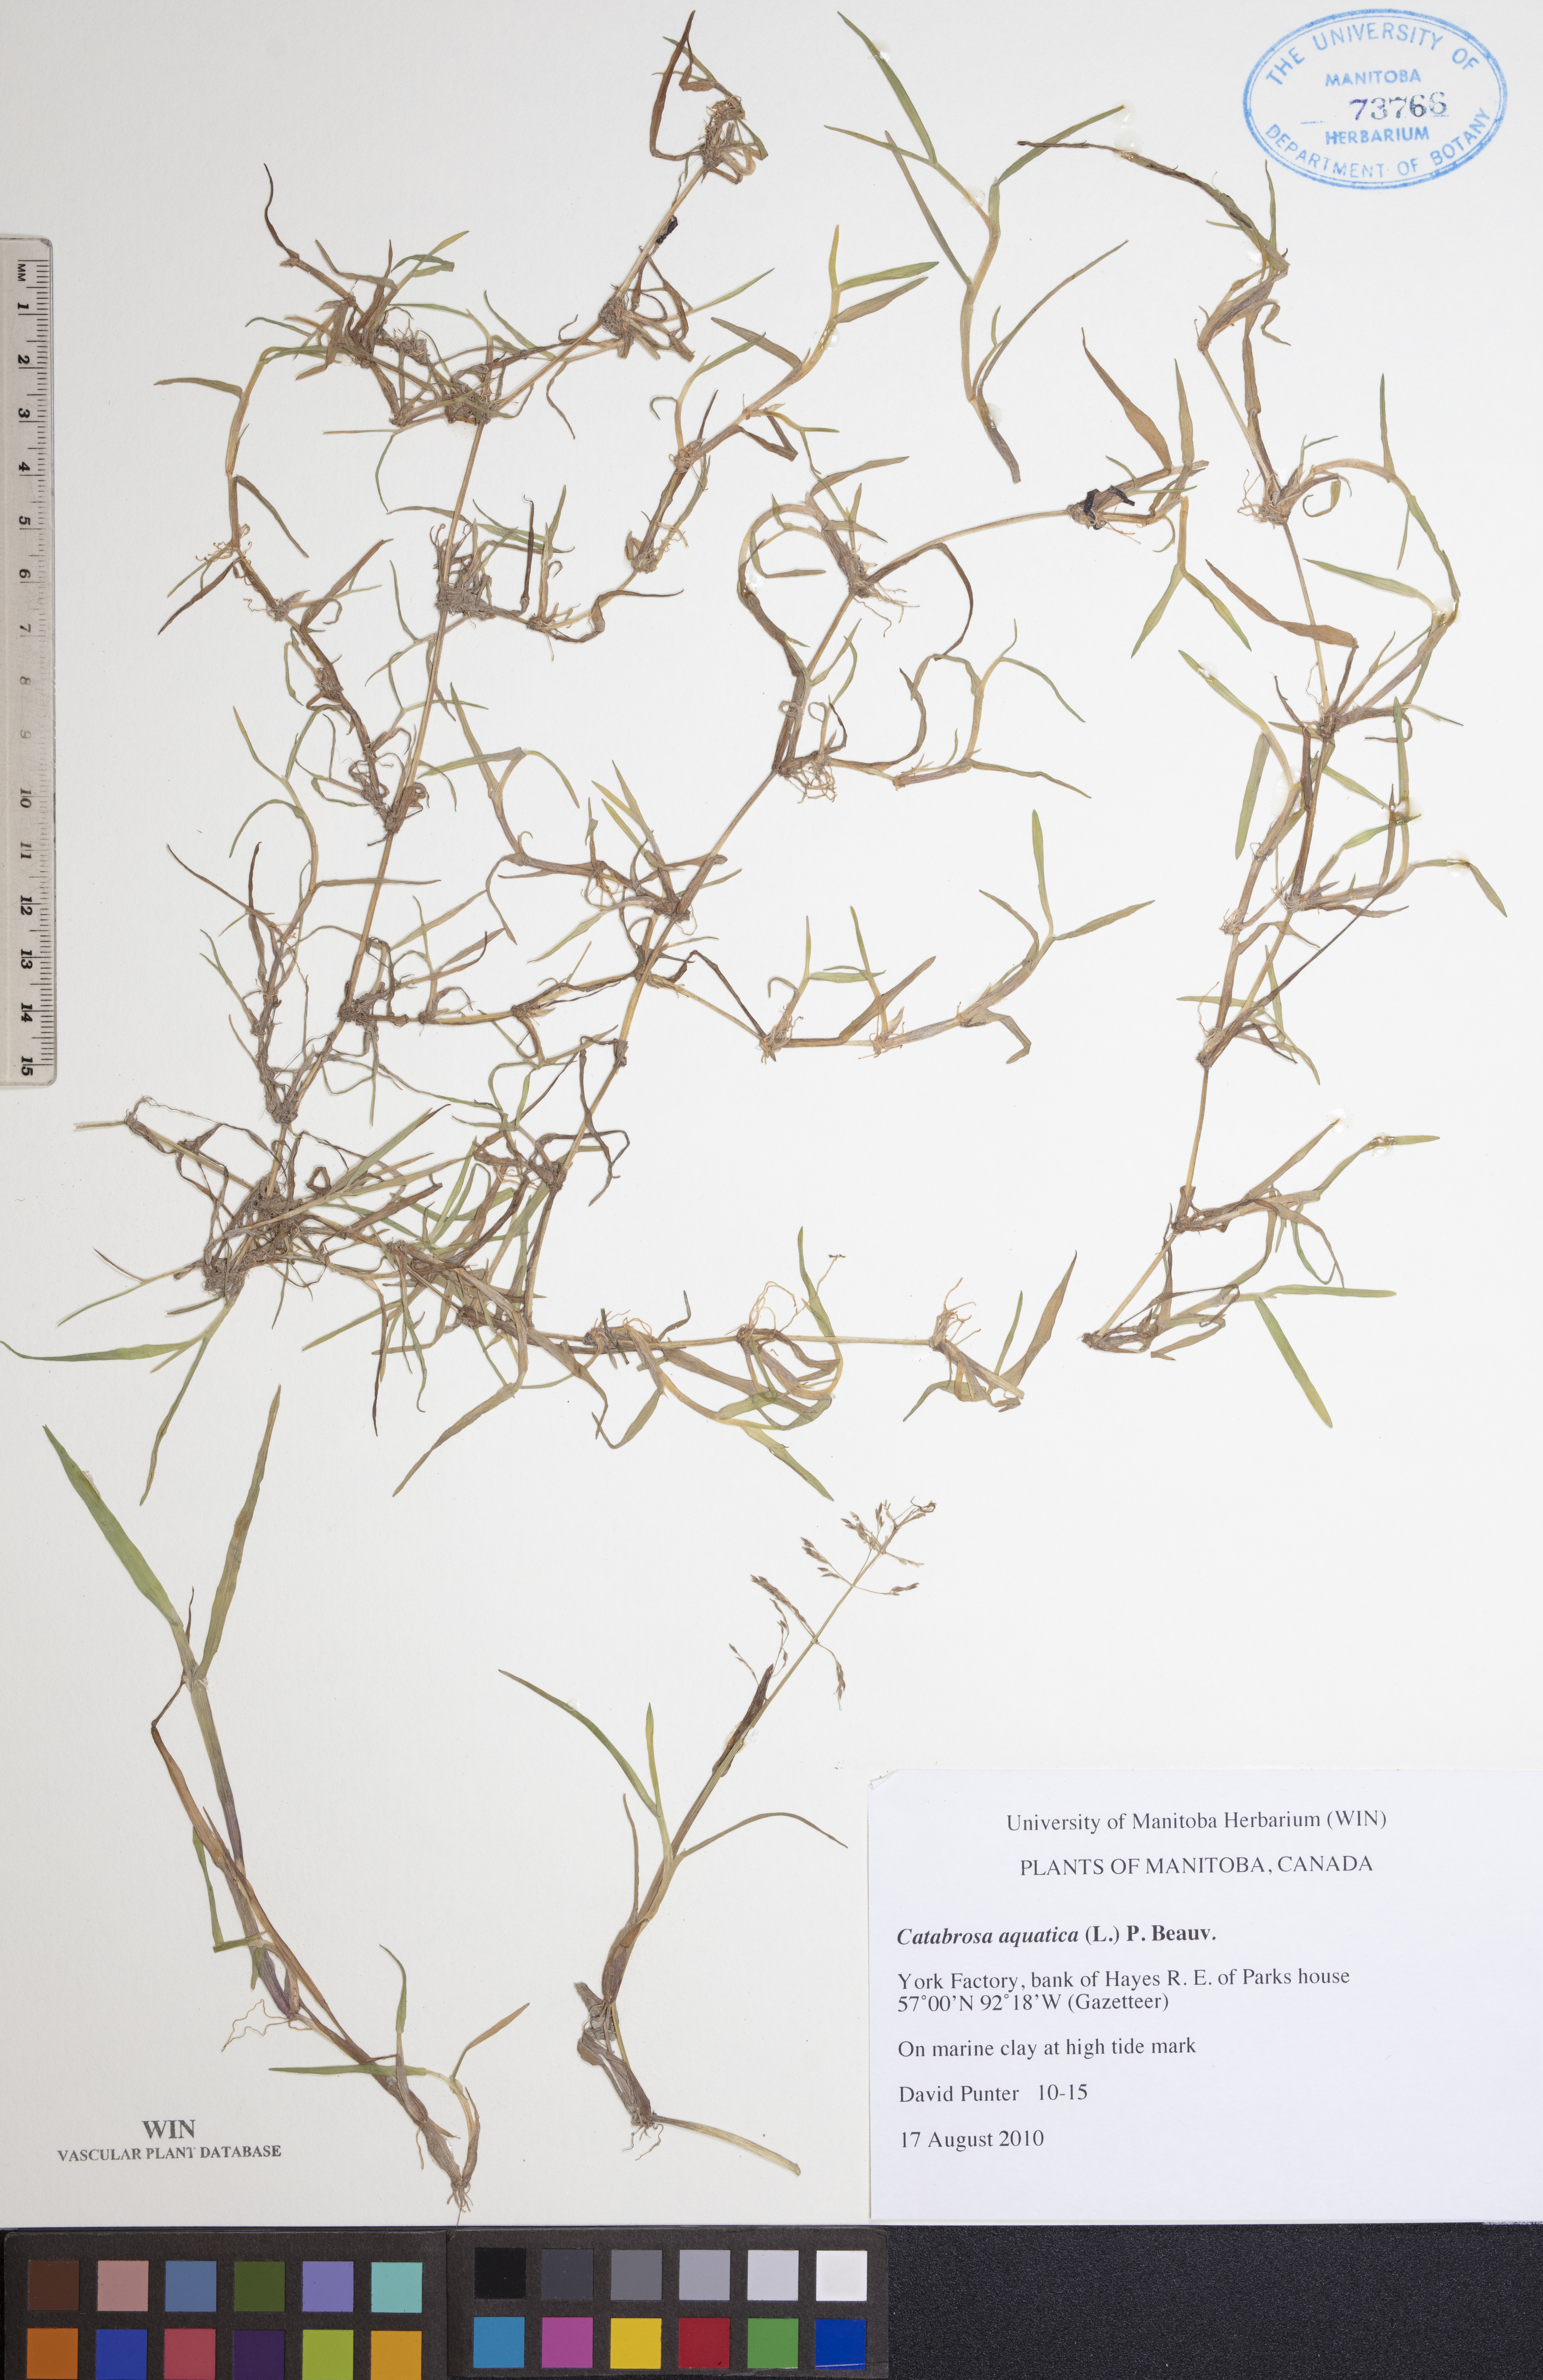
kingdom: Plantae
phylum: Tracheophyta
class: Liliopsida
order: Poales
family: Poaceae
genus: Catabrosa
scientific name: Catabrosa aquatica
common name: Whorl-grass
